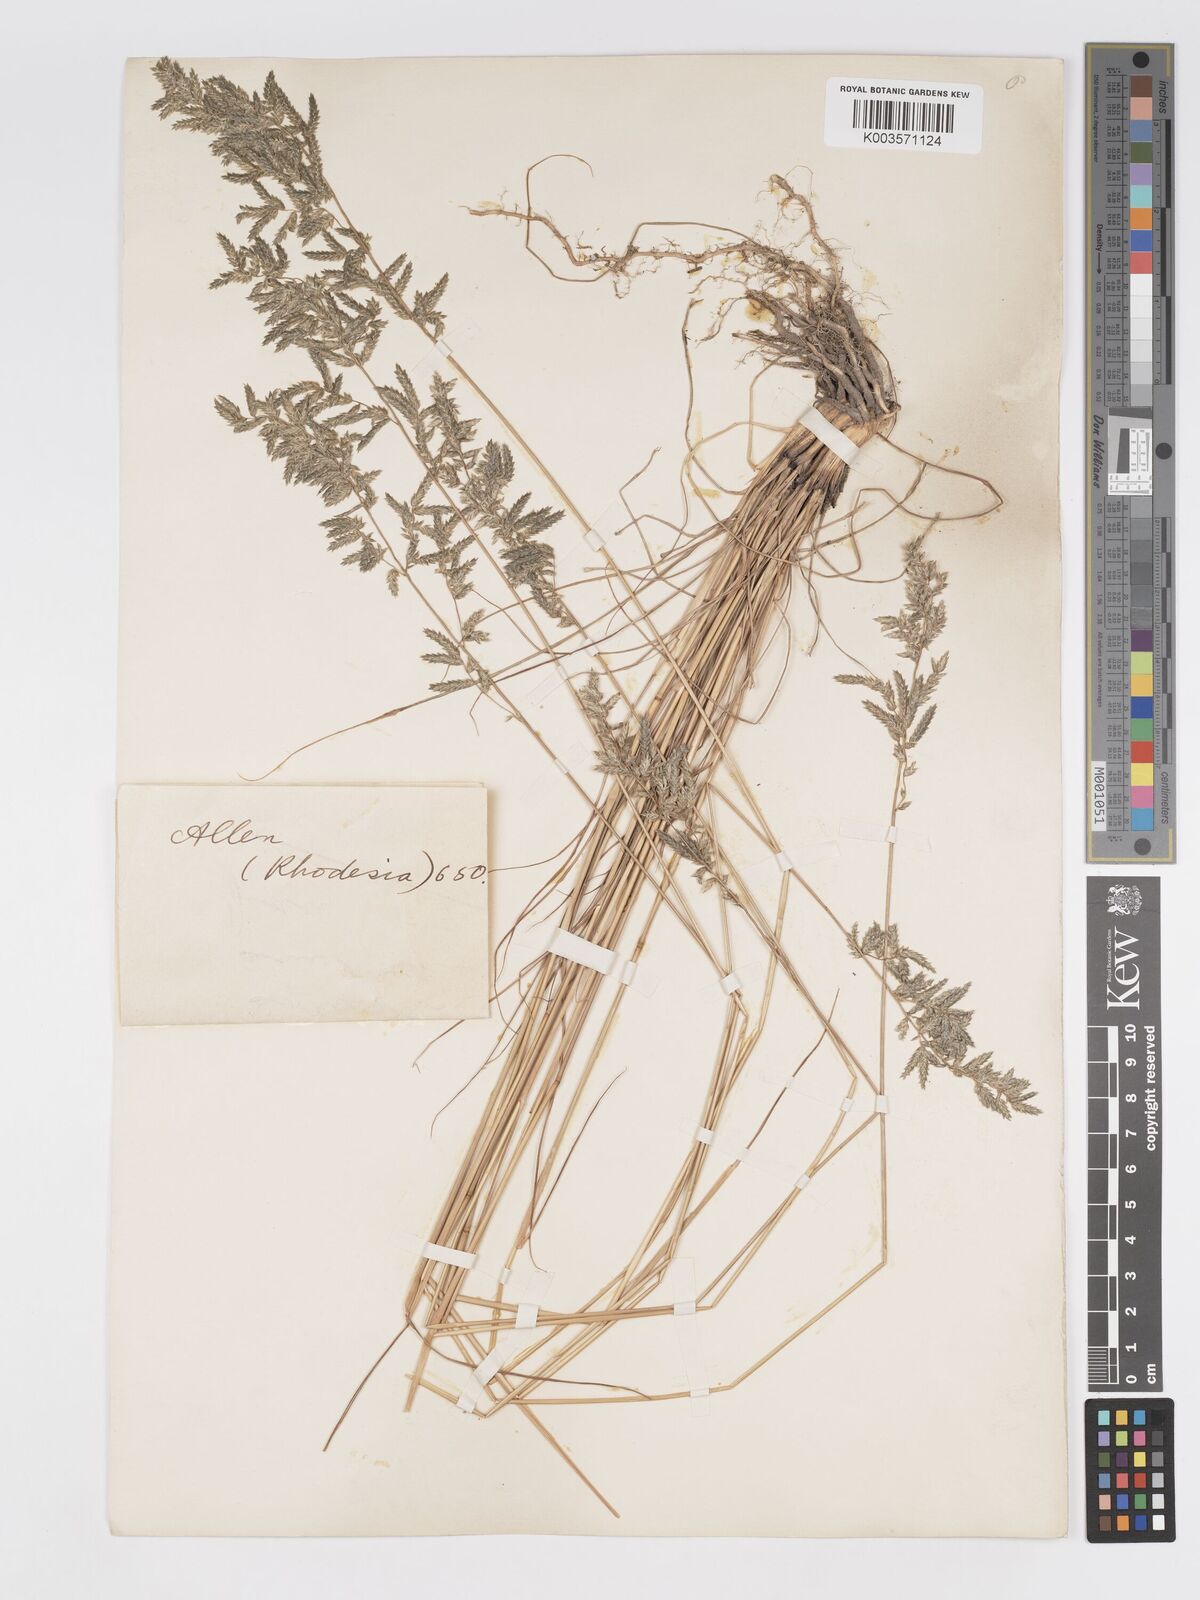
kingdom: Plantae
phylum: Tracheophyta
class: Liliopsida
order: Poales
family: Poaceae
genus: Eragrostis
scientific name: Eragrostis nindensis
